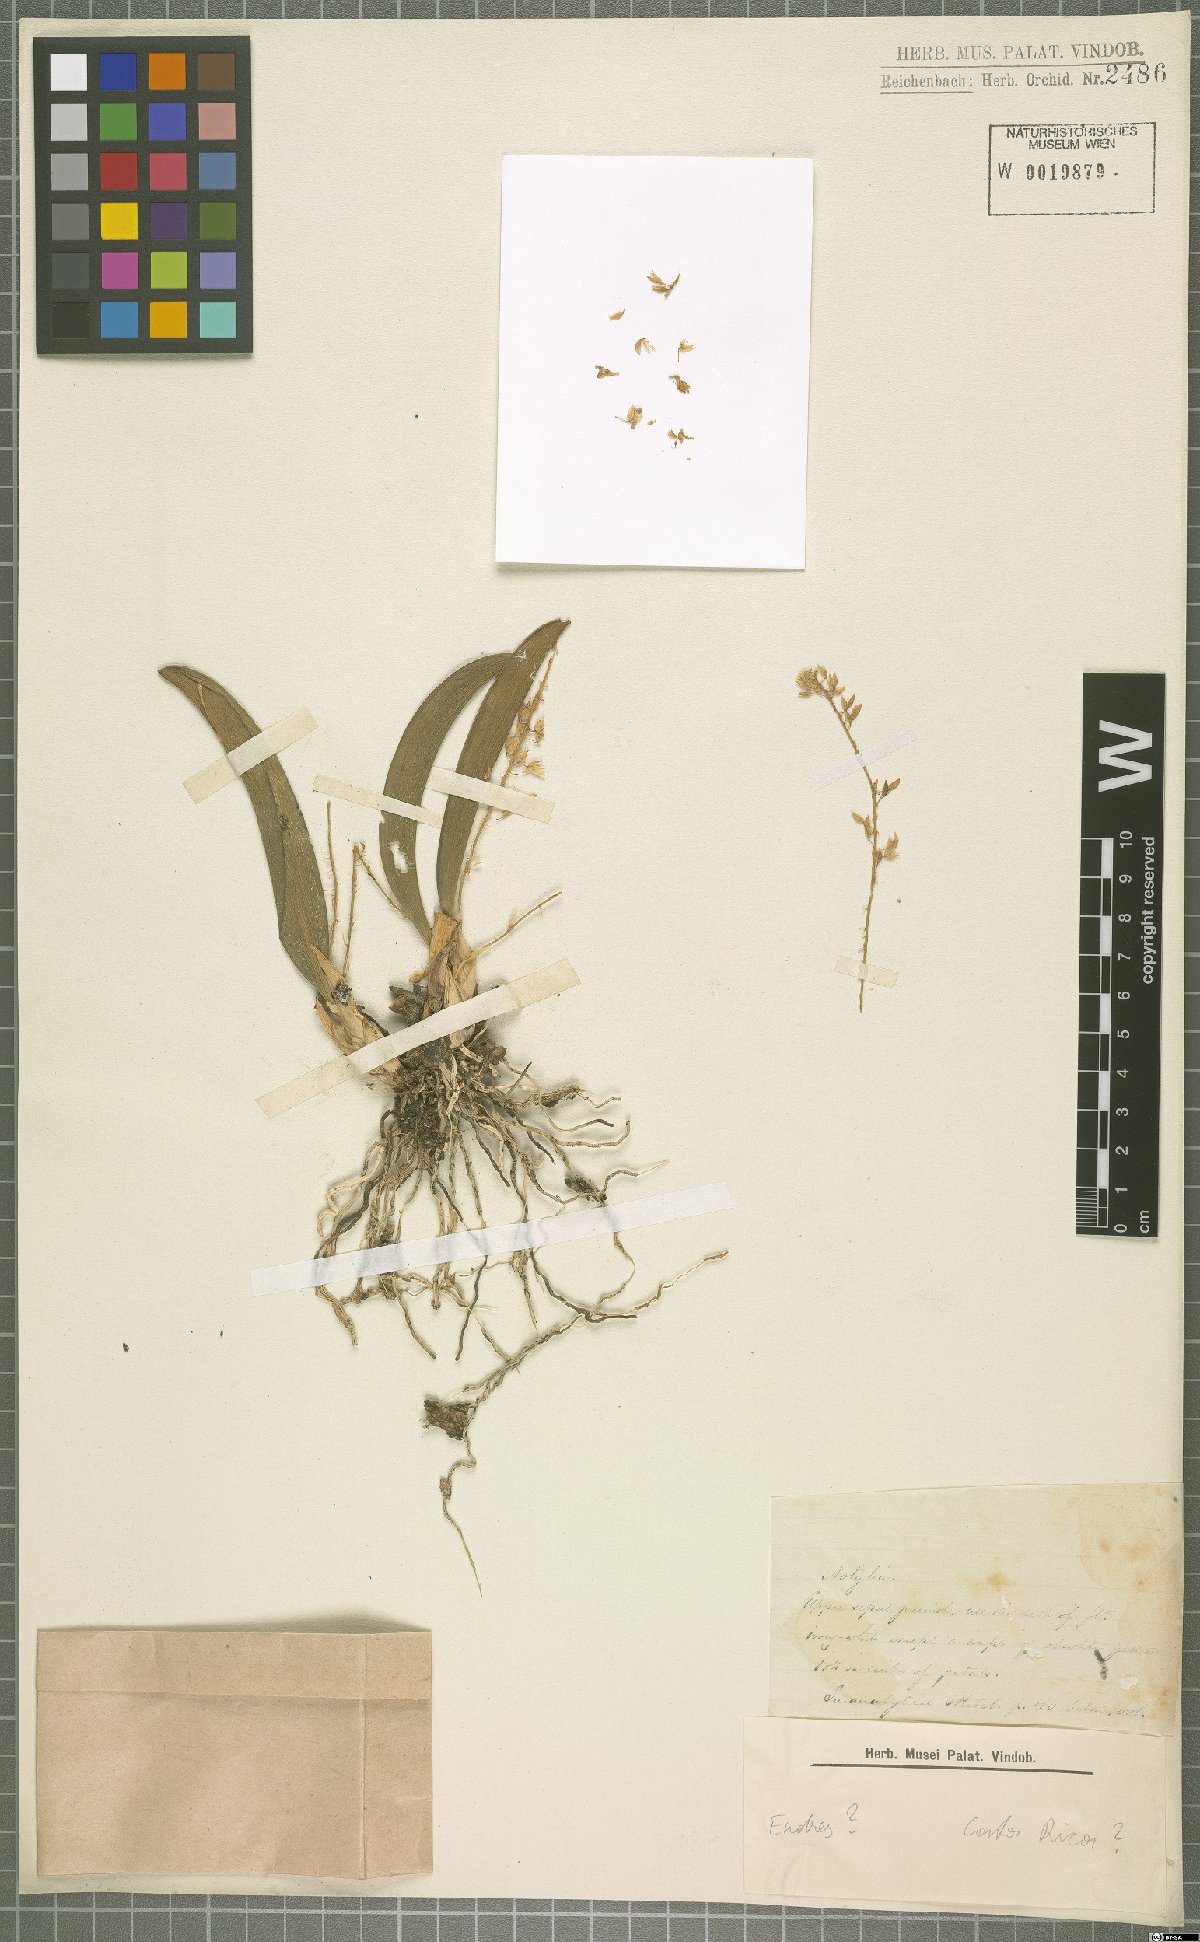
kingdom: Plantae
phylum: Tracheophyta
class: Liliopsida
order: Asparagales
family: Orchidaceae
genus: Notylia
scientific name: Notylia
